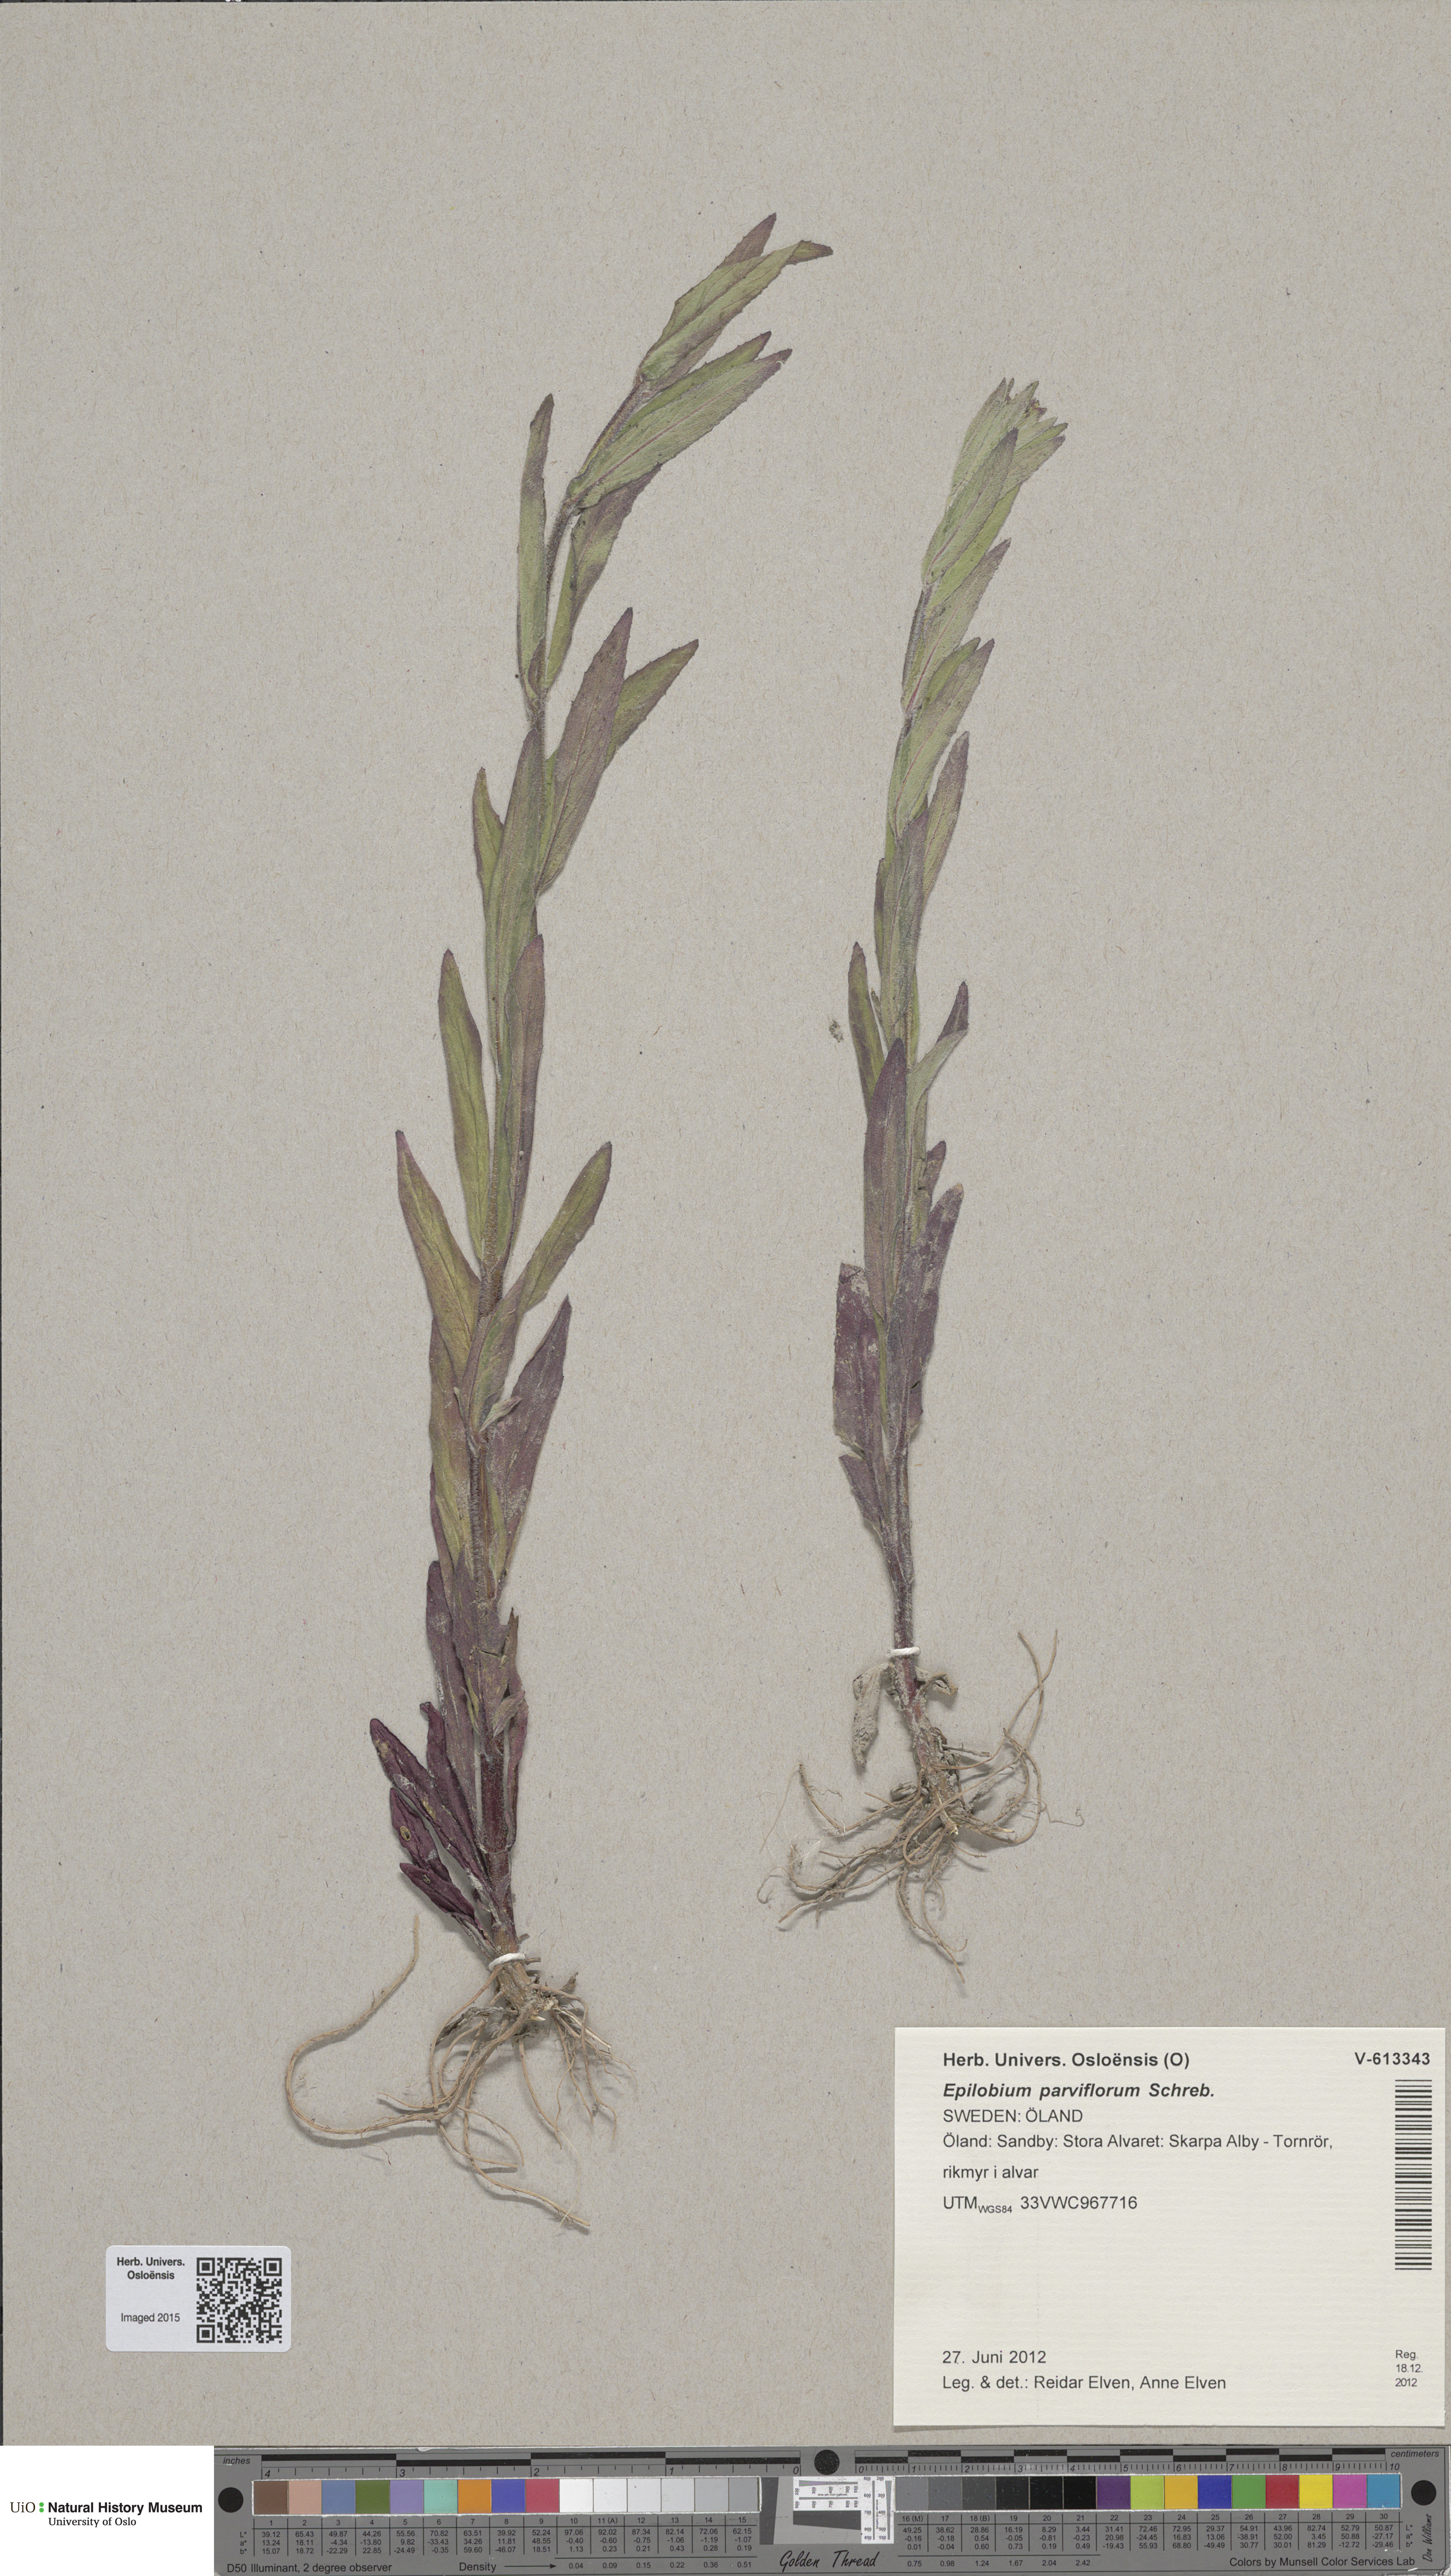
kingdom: Plantae
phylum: Tracheophyta
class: Magnoliopsida
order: Myrtales
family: Onagraceae
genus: Epilobium
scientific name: Epilobium parviflorum
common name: Hoary willowherb
